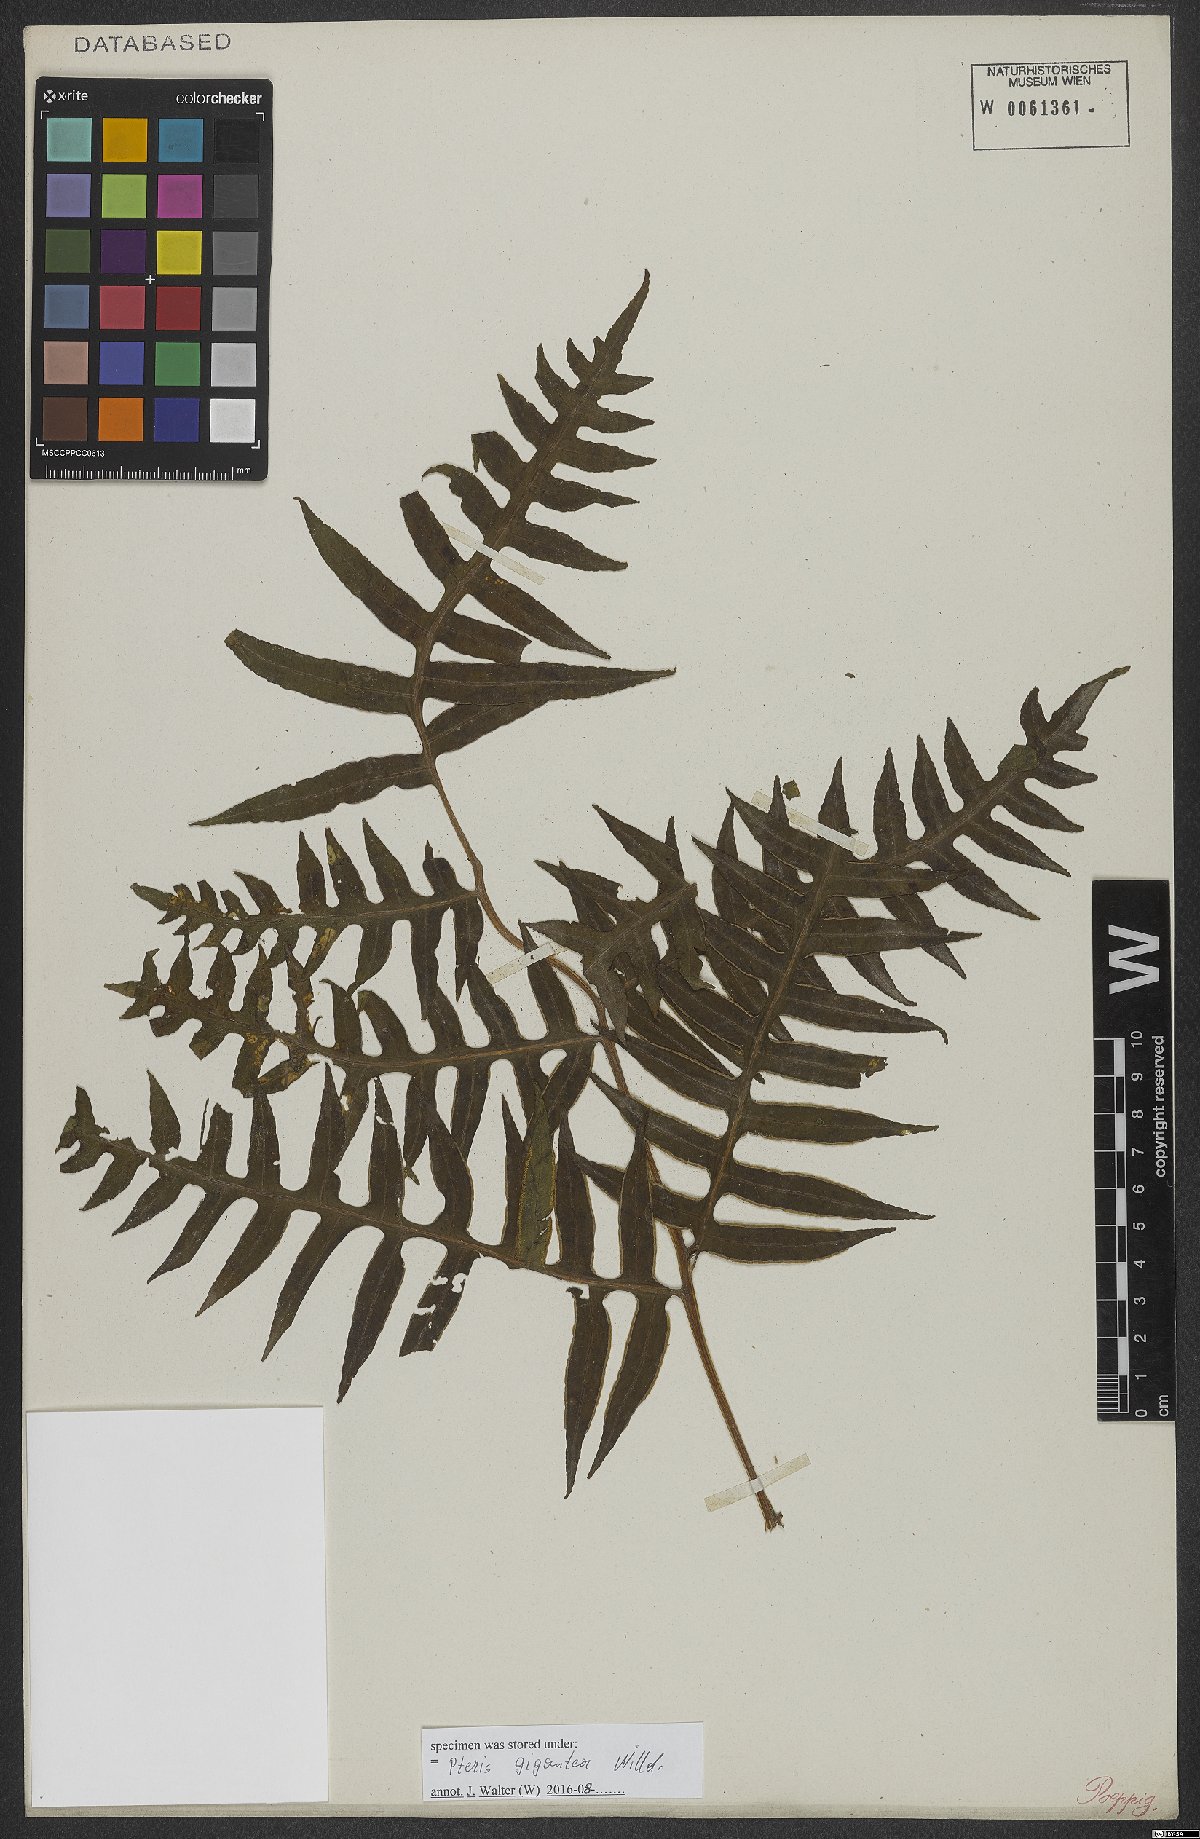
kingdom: Plantae
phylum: Tracheophyta
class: Polypodiopsida
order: Polypodiales
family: Pteridaceae
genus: Pteris
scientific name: Pteris gigantea
